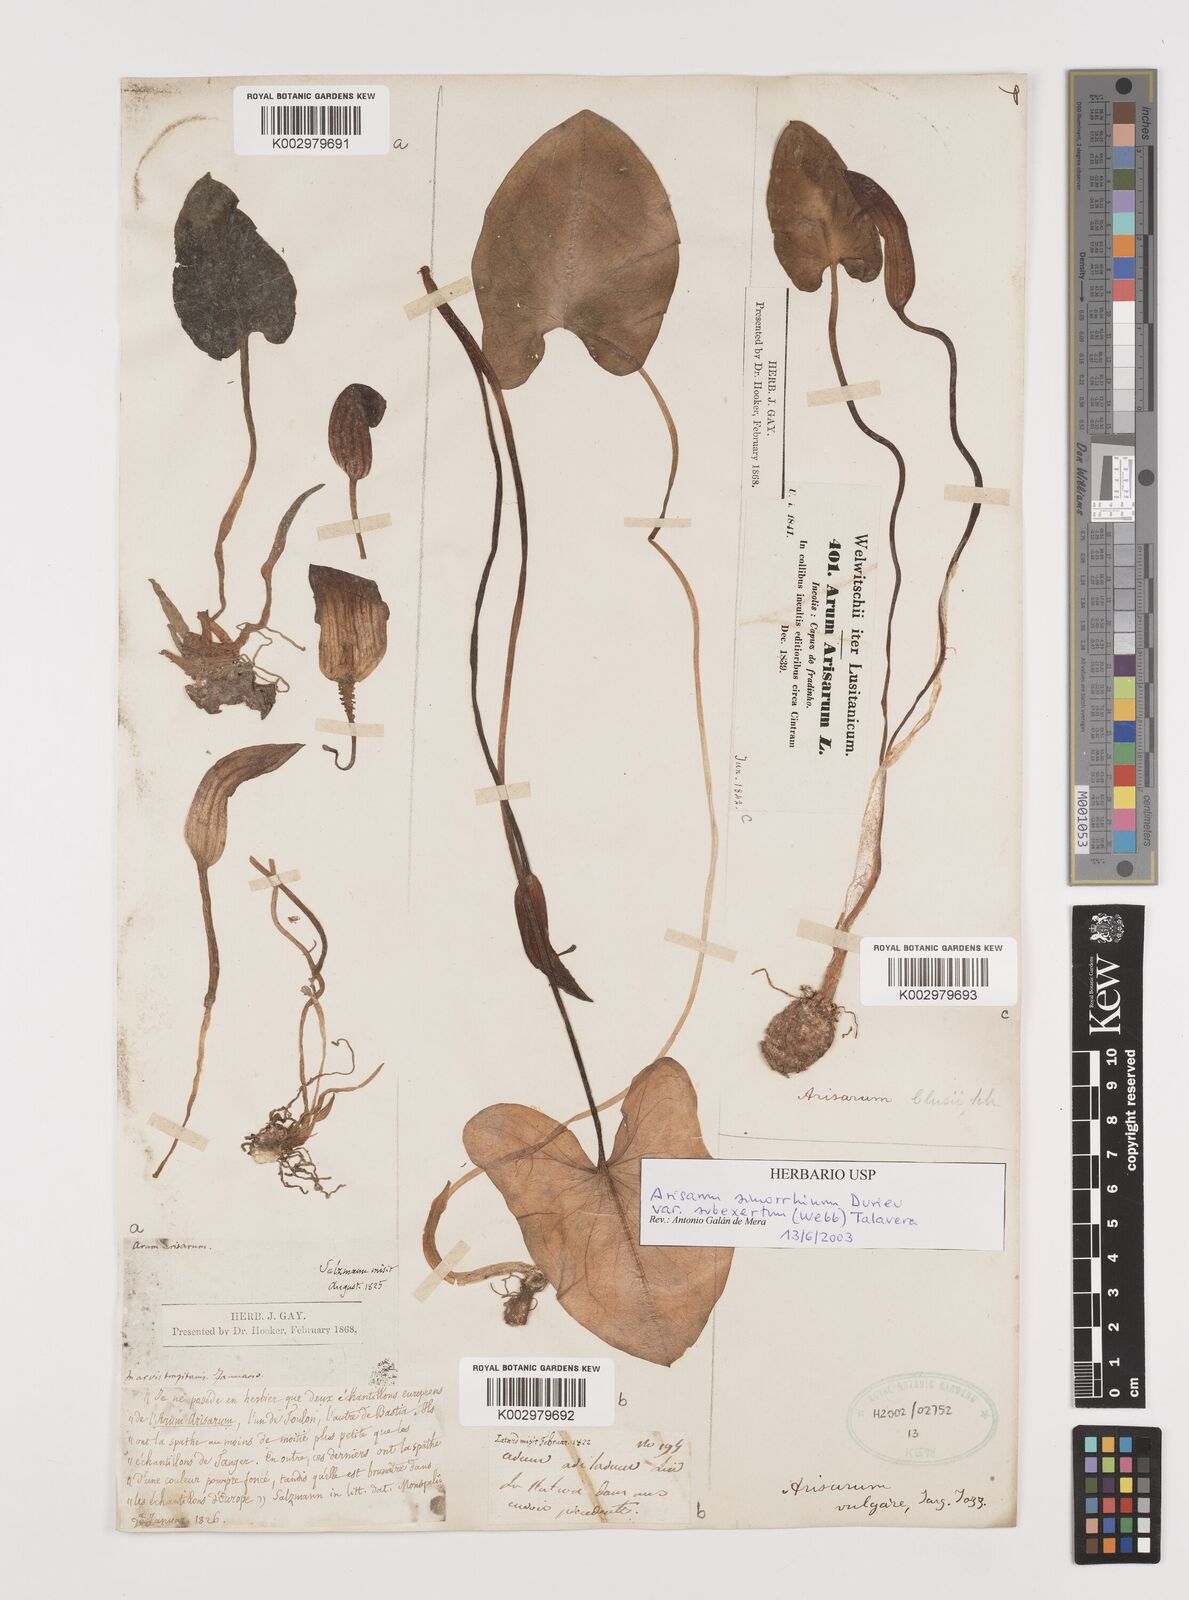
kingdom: Plantae
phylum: Tracheophyta
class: Liliopsida
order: Alismatales
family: Araceae
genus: Arisarum
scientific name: Arisarum simorrhinum
